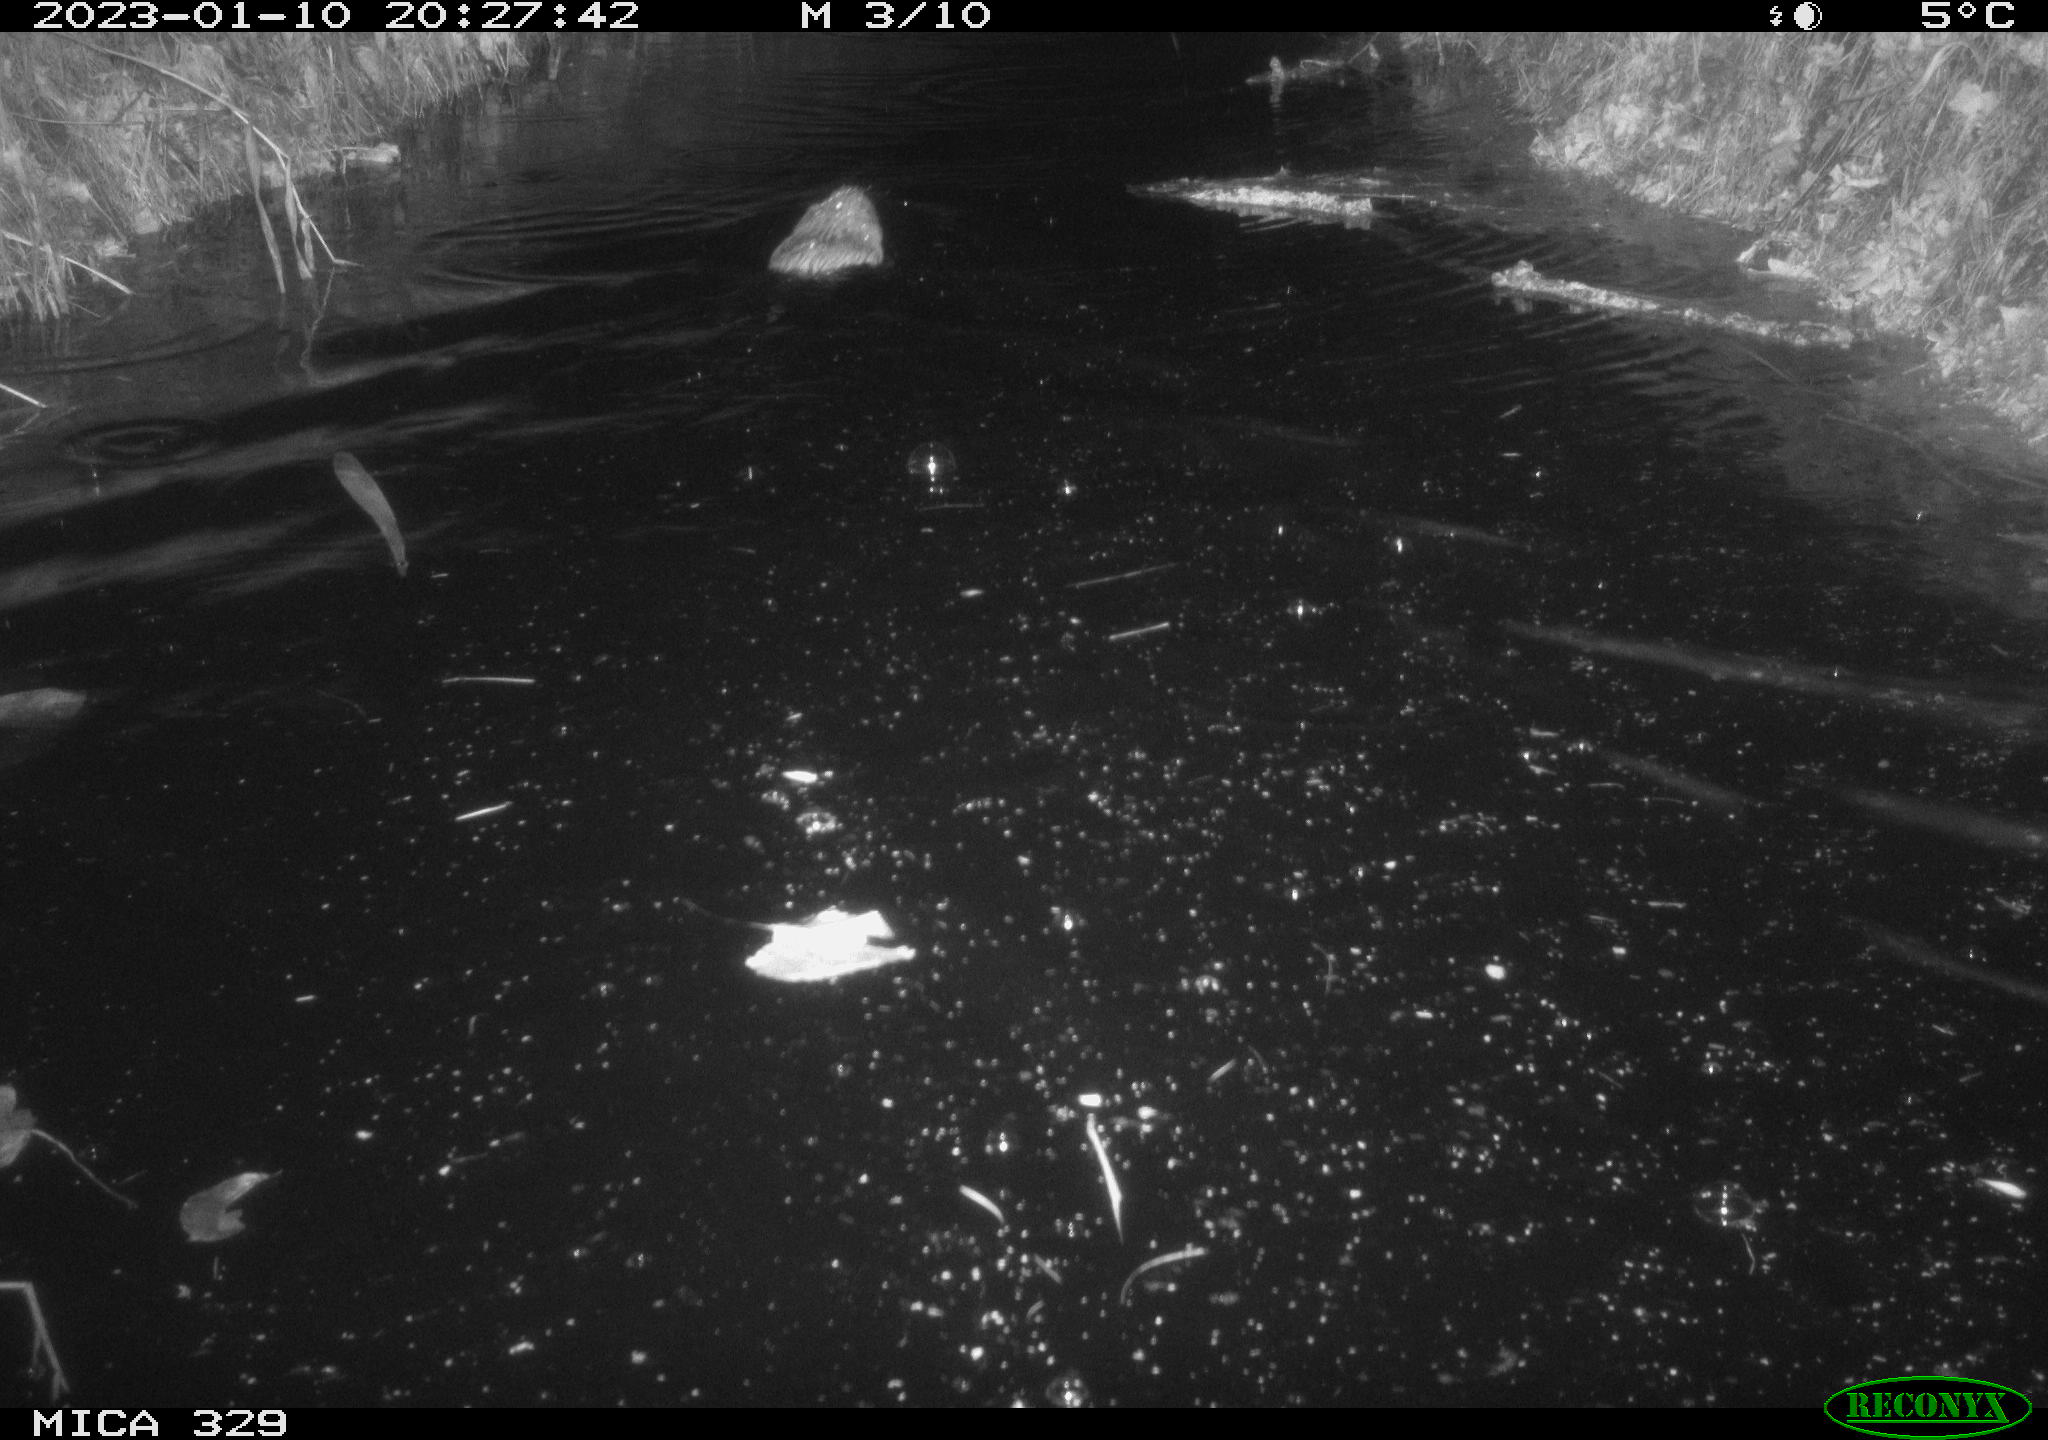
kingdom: Animalia
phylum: Chordata
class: Mammalia
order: Rodentia
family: Cricetidae
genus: Ondatra
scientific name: Ondatra zibethicus
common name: Muskrat
